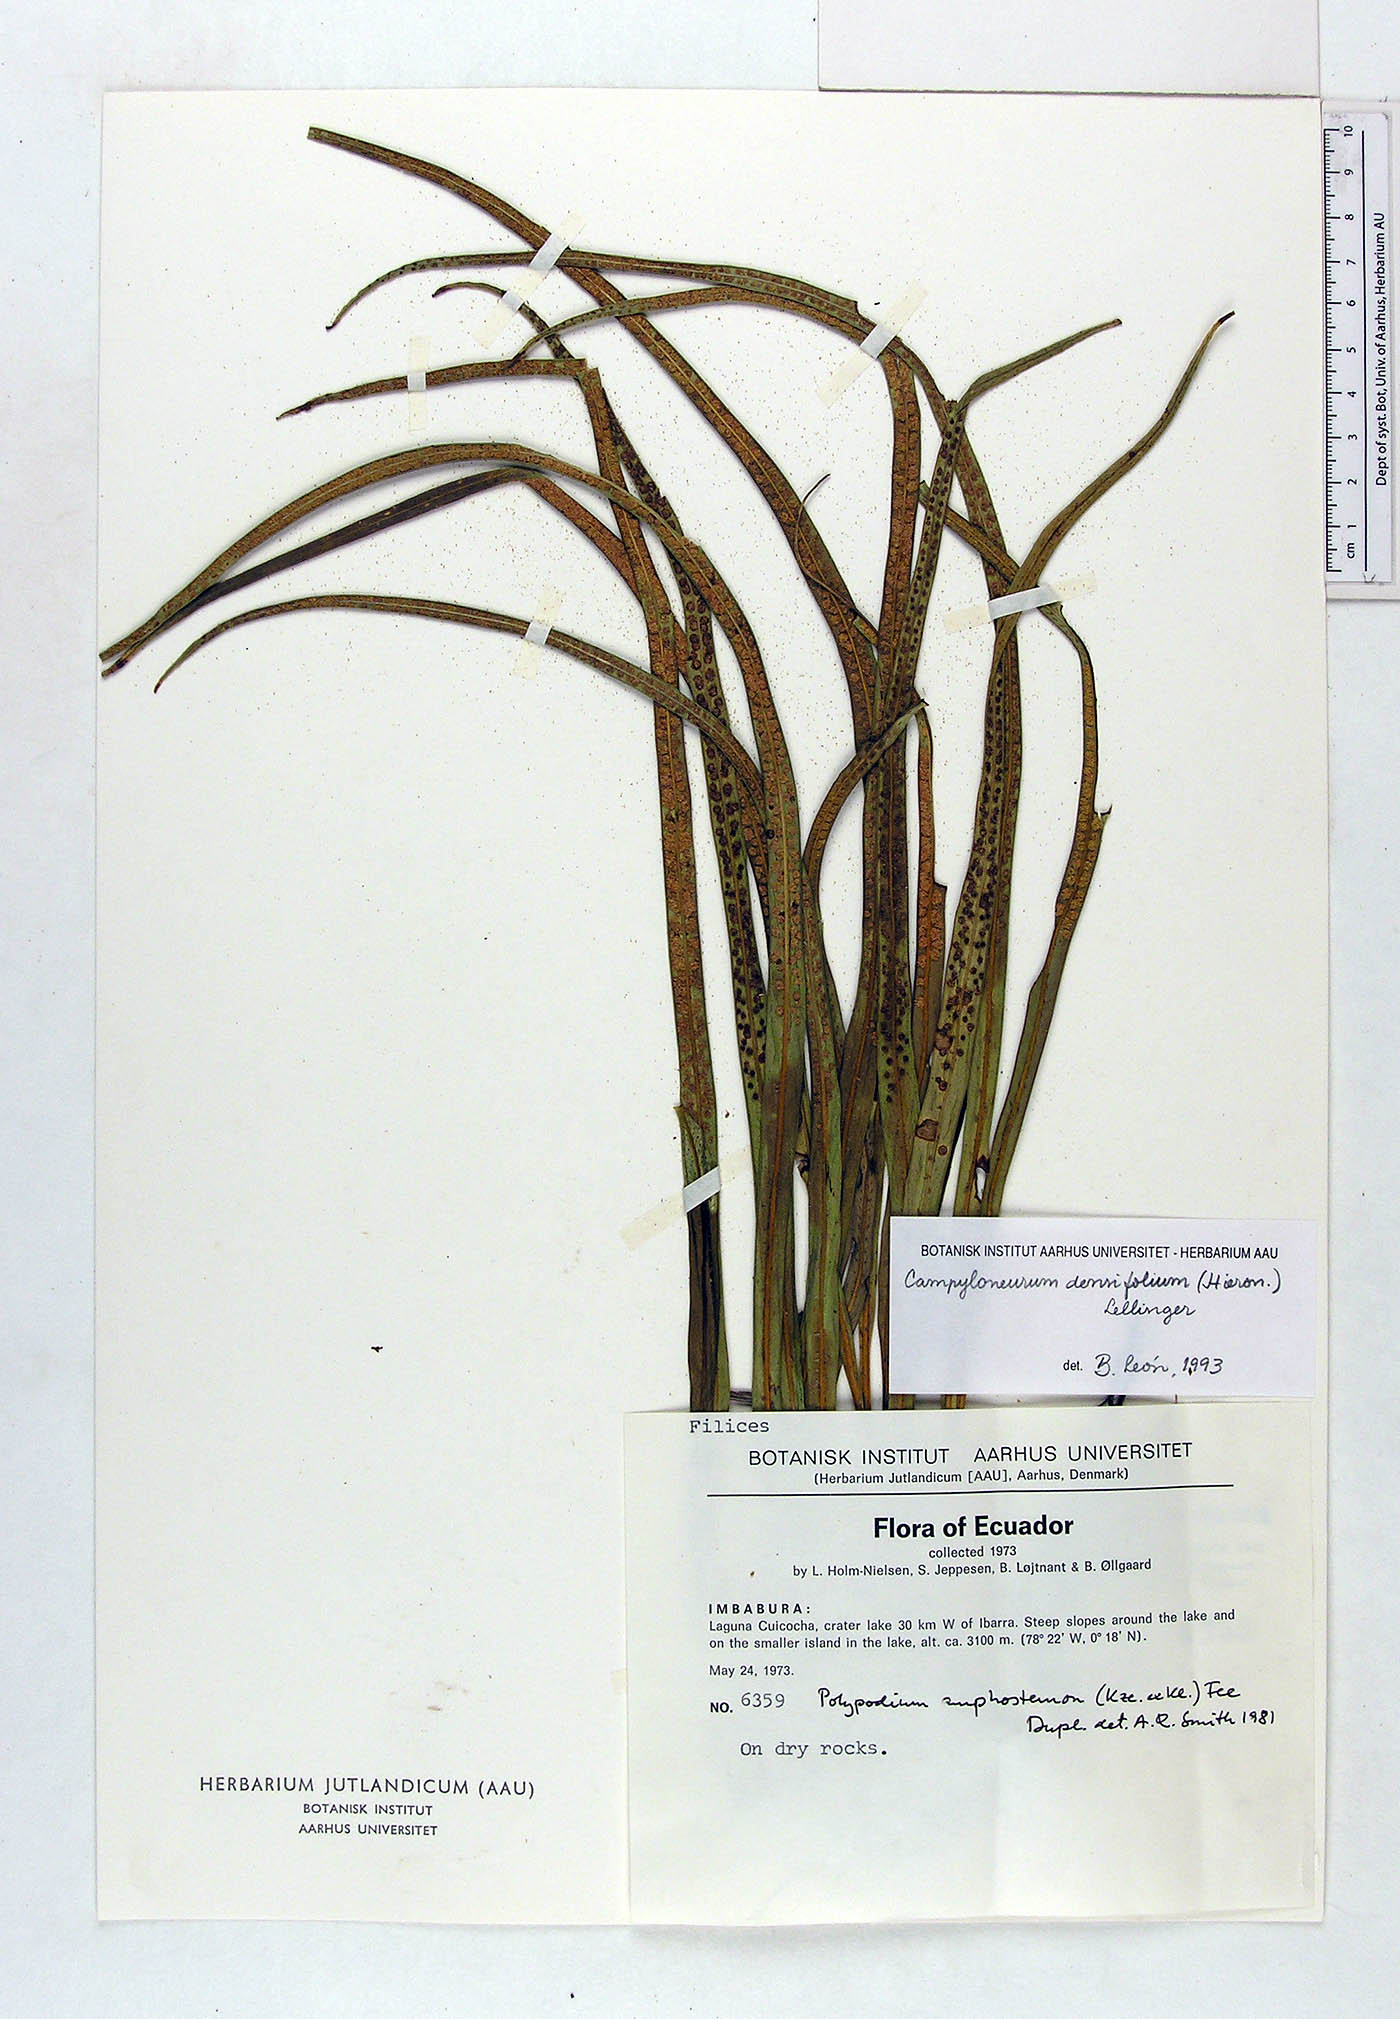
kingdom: Plantae
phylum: Tracheophyta
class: Polypodiopsida
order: Polypodiales
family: Polypodiaceae
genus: Campyloneurum
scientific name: Campyloneurum densifolium
